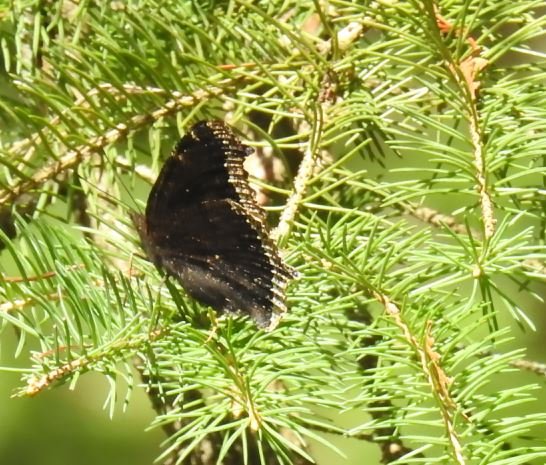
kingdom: Animalia
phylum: Arthropoda
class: Insecta
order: Lepidoptera
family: Nymphalidae
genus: Nymphalis
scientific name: Nymphalis antiopa
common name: Mourning Cloak
